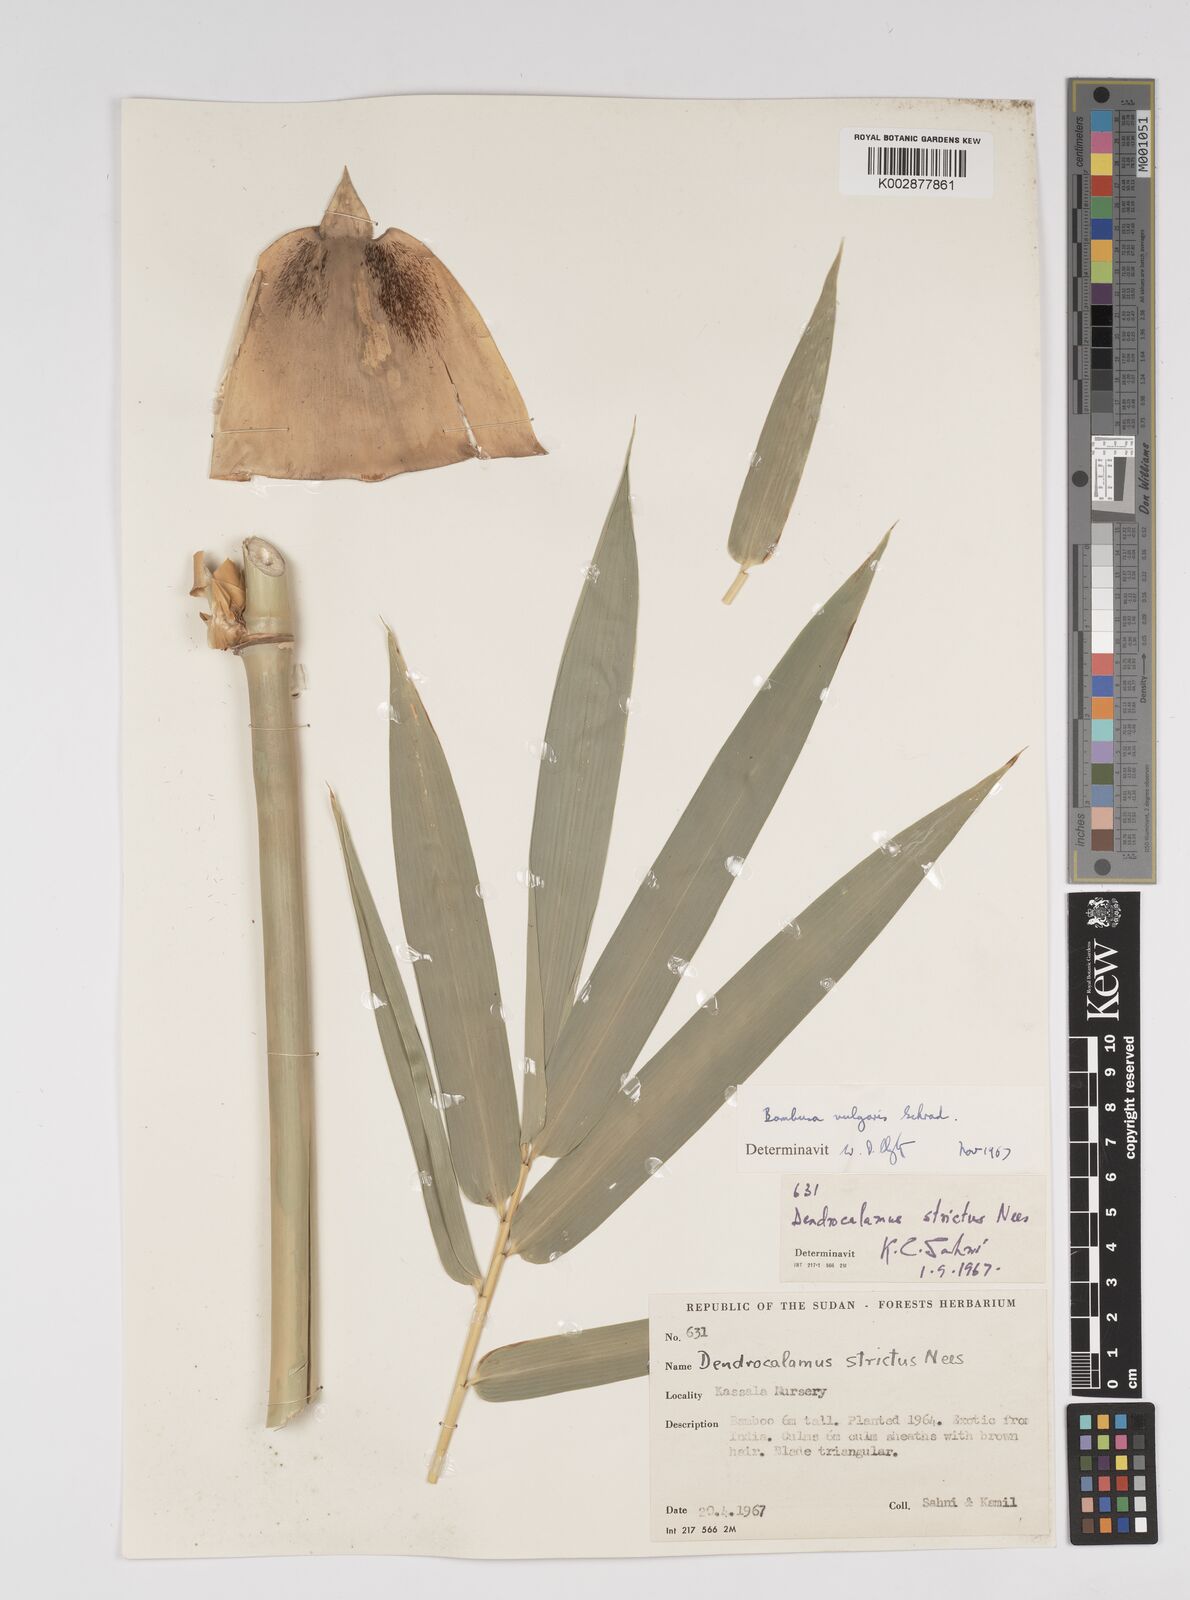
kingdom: Plantae
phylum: Tracheophyta
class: Liliopsida
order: Poales
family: Poaceae
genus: Bambusa
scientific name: Bambusa vulgaris
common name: Common bamboo
